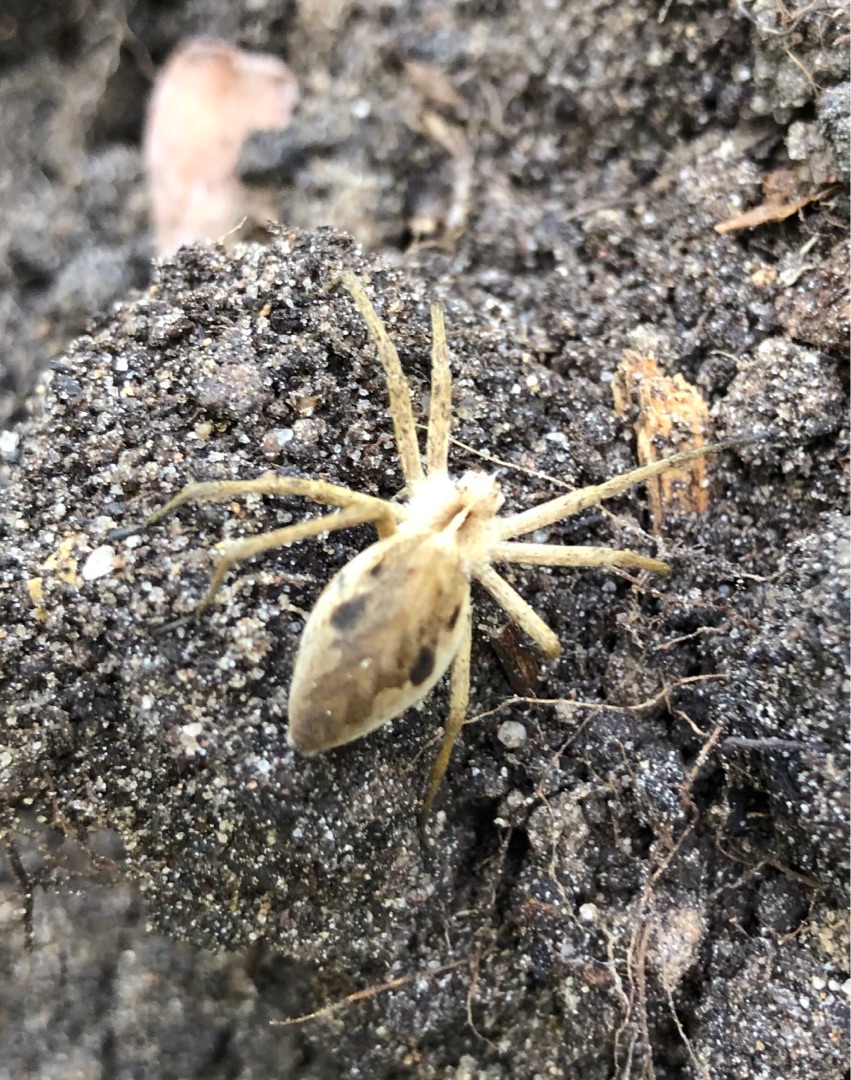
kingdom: Animalia
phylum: Arthropoda
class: Arachnida
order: Araneae
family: Pisauridae
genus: Pisaura
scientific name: Pisaura mirabilis
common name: Almindelig rovedderkop
